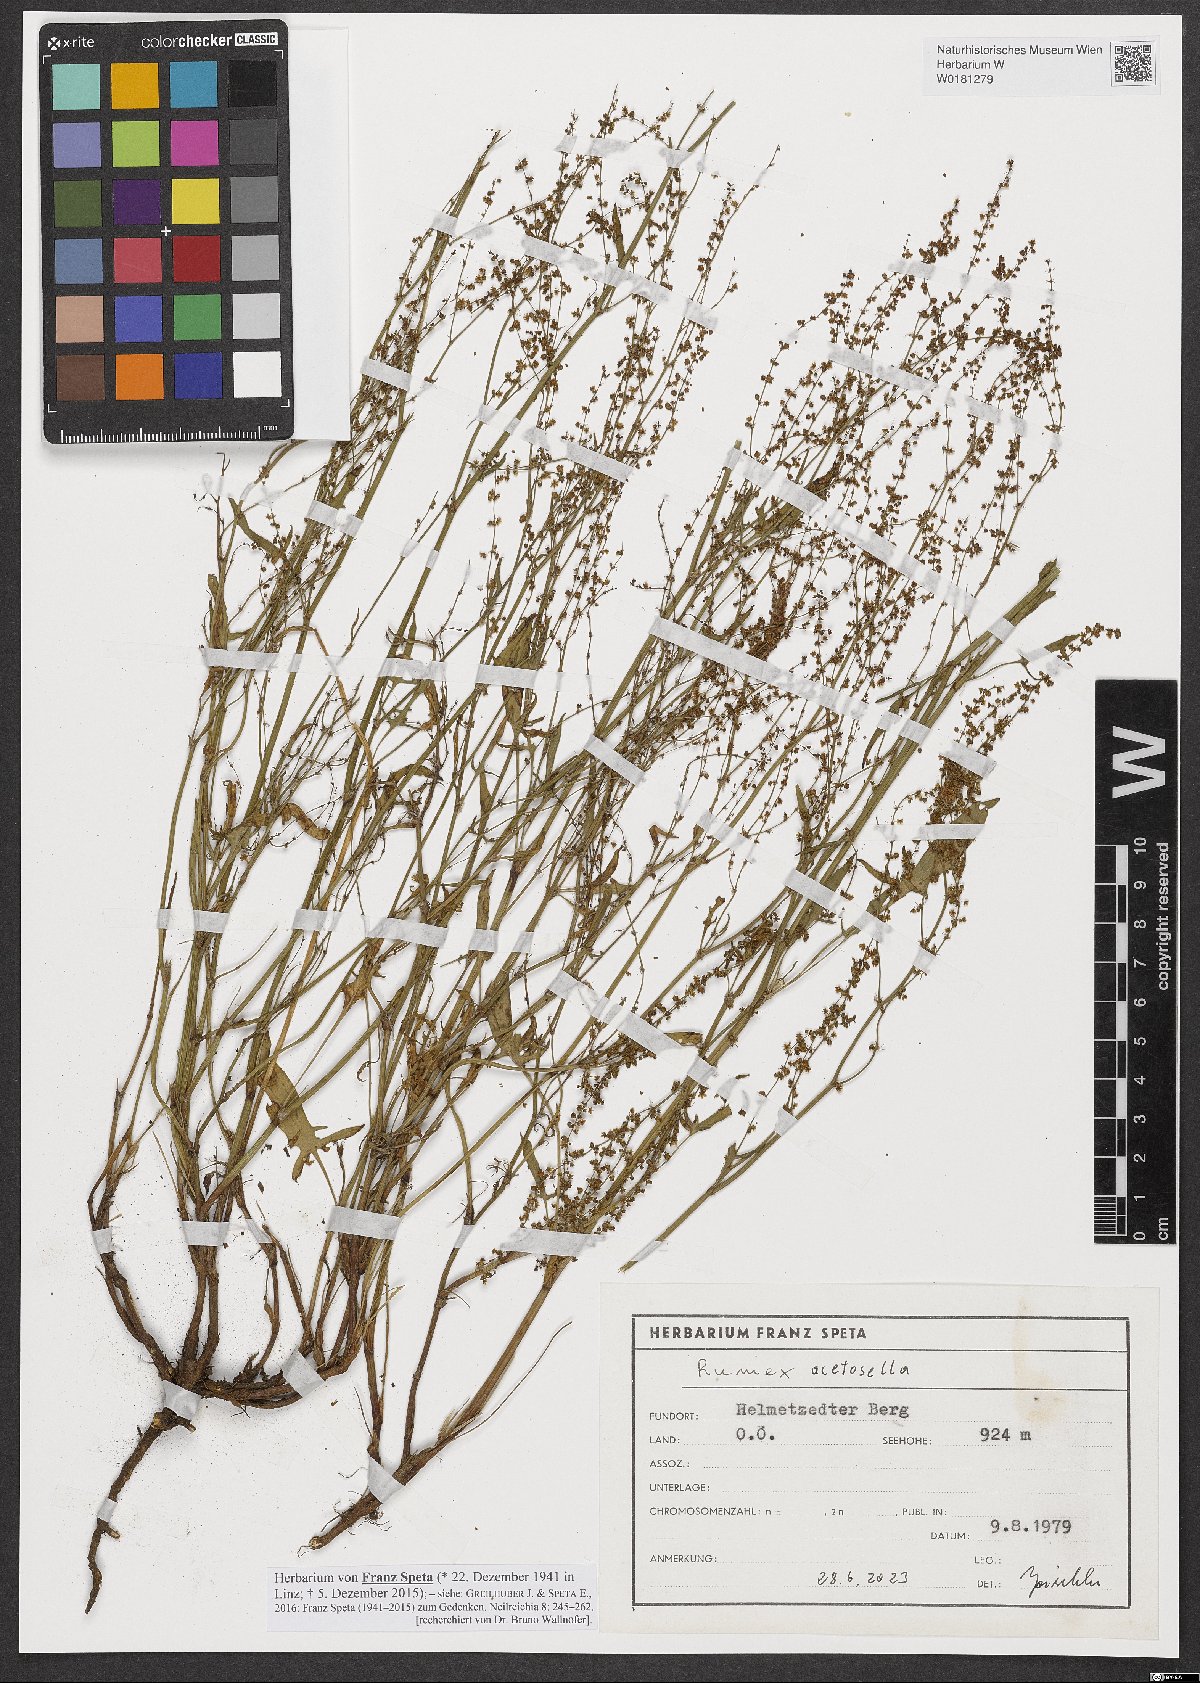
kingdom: Plantae
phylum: Tracheophyta
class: Magnoliopsida
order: Caryophyllales
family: Polygonaceae
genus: Rumex
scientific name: Rumex acetosella
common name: Common sheep sorrel
